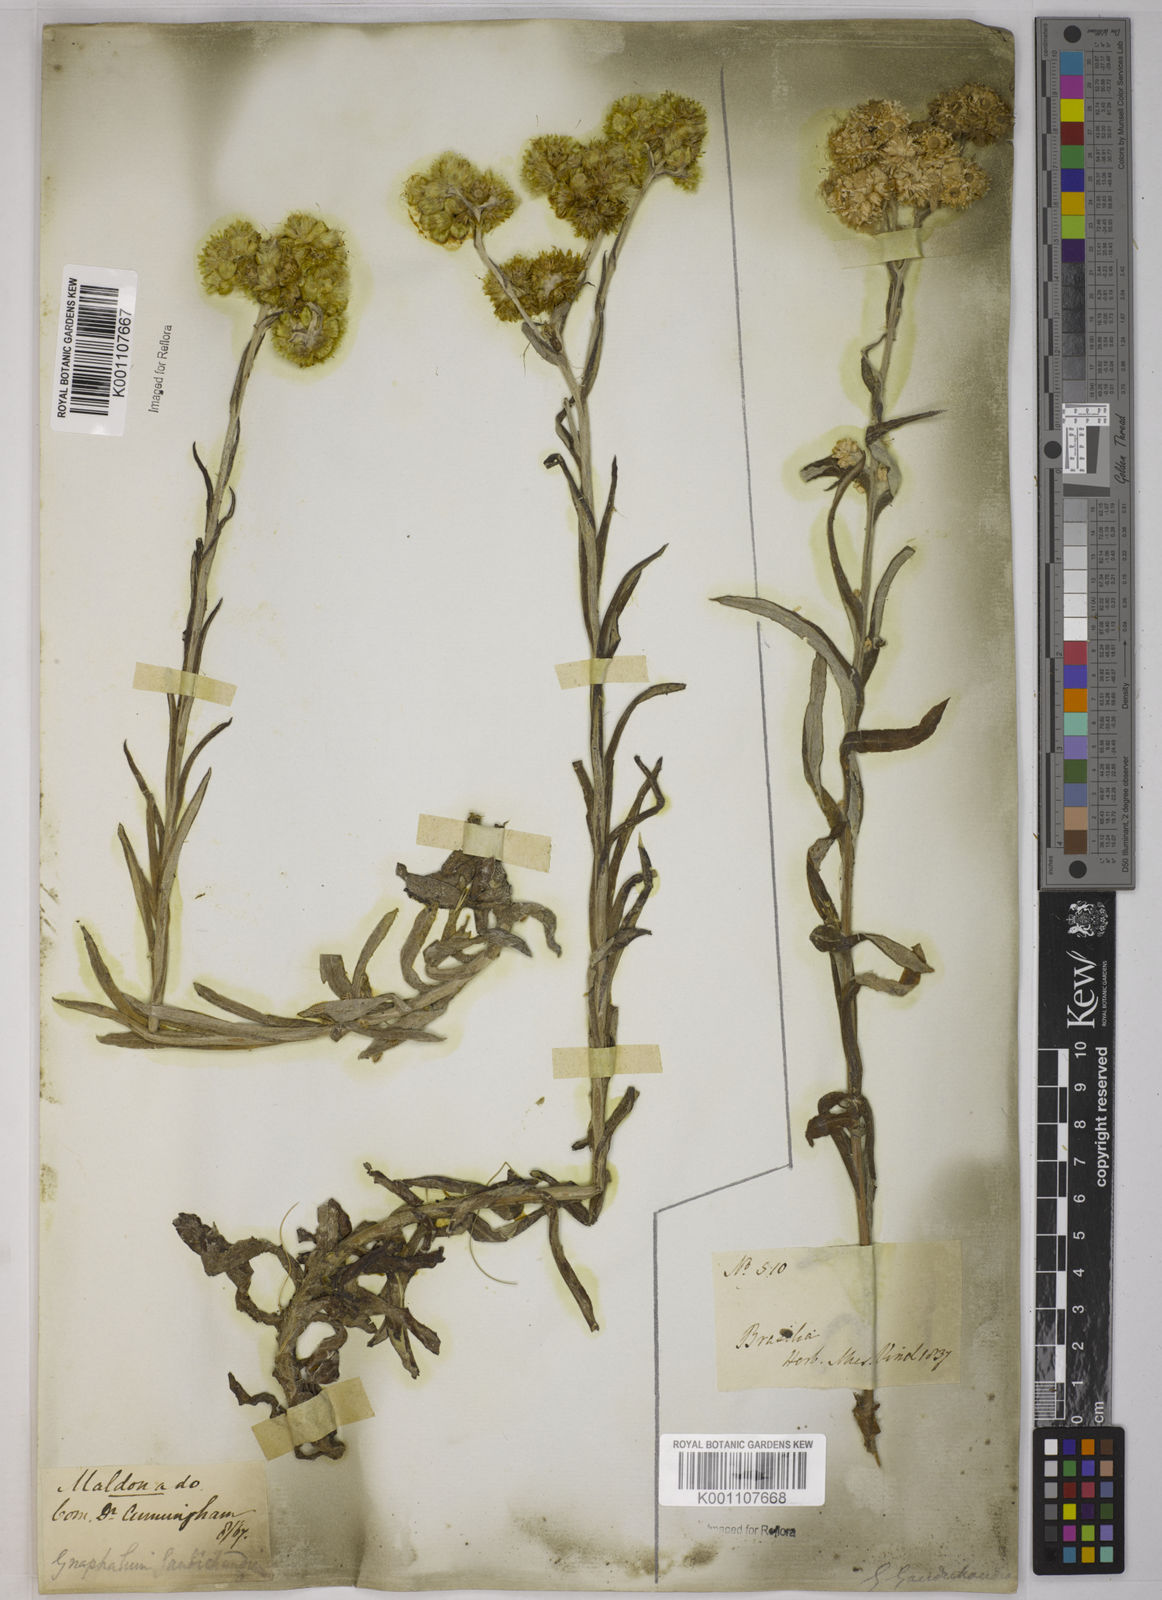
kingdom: Plantae
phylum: Tracheophyta
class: Magnoliopsida
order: Asterales
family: Asteraceae
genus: Pseudognaphalium
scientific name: Pseudognaphalium cheiranthifolium
